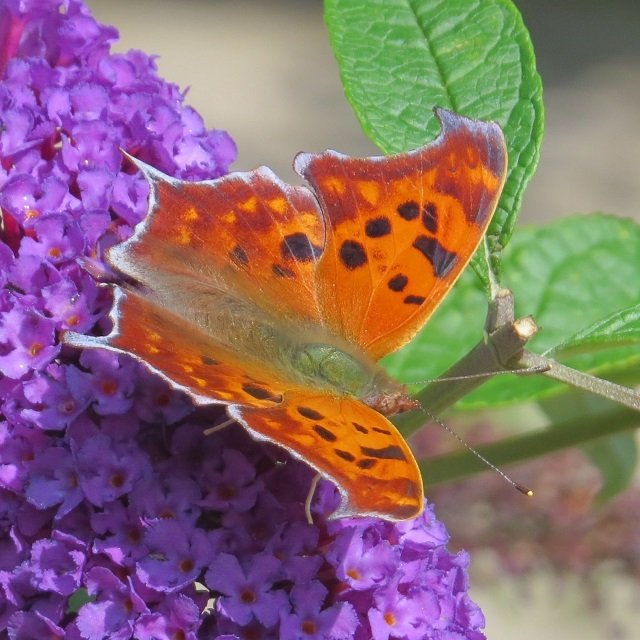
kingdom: Animalia
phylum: Arthropoda
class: Insecta
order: Lepidoptera
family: Nymphalidae
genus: Polygonia
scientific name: Polygonia interrogationis
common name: Question Mark
